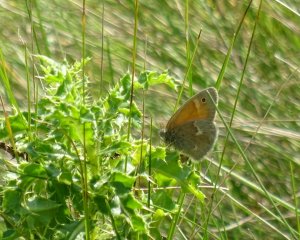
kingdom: Animalia
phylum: Arthropoda
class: Insecta
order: Lepidoptera
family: Nymphalidae
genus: Coenonympha
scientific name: Coenonympha tullia
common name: Large Heath
